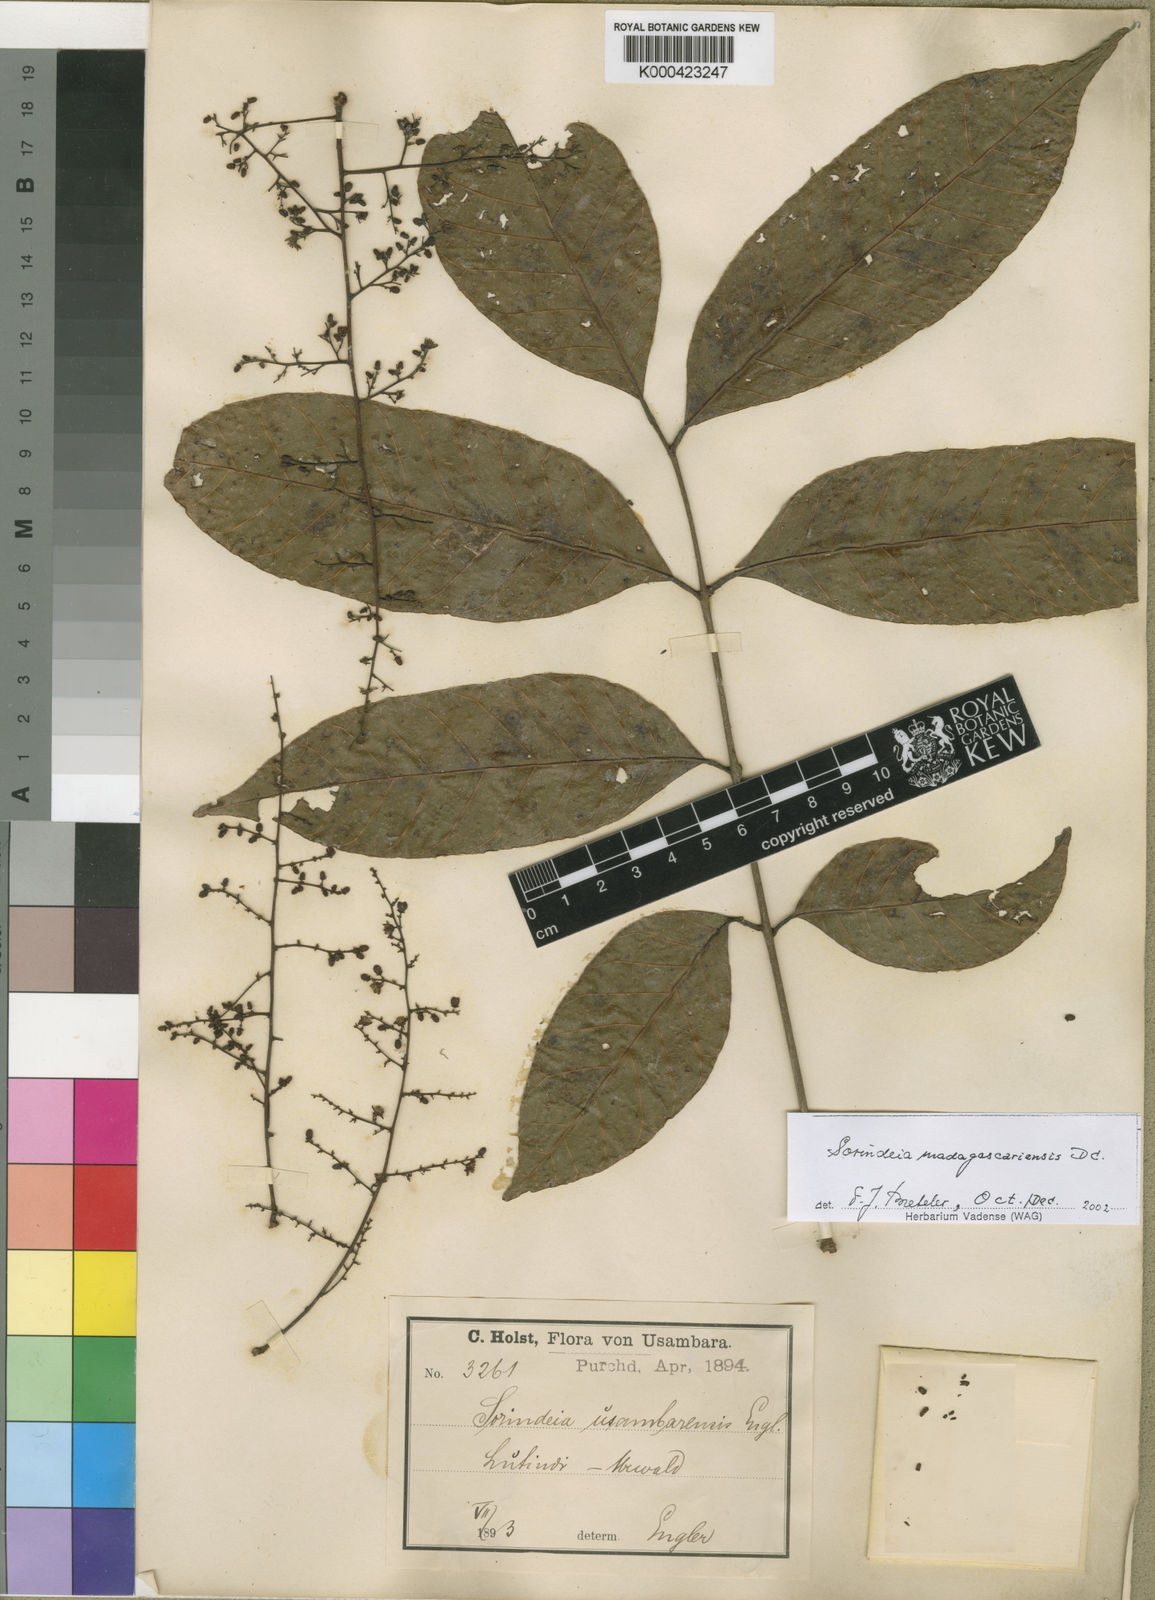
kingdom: Plantae
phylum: Tracheophyta
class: Magnoliopsida
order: Sapindales
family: Anacardiaceae
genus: Sorindeia
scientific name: Sorindeia madagascariensis
